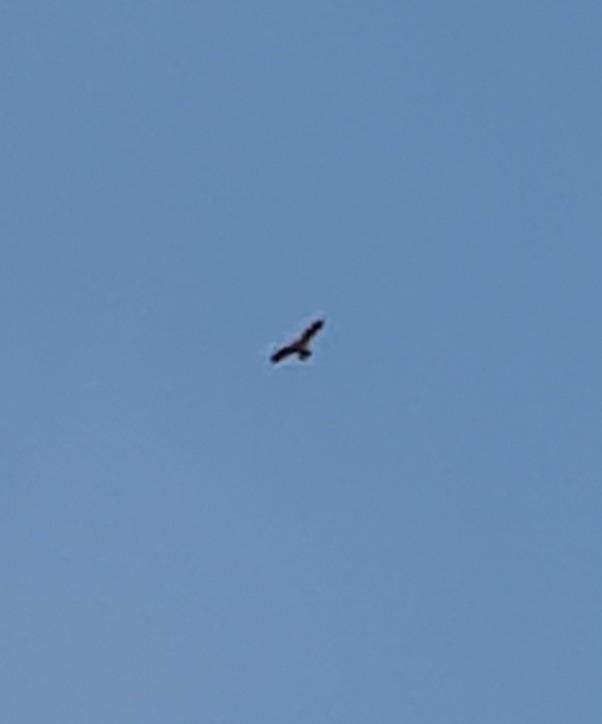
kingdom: Animalia
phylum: Chordata
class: Aves
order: Accipitriformes
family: Accipitridae
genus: Circus
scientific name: Circus aeruginosus
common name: Rørhøg
